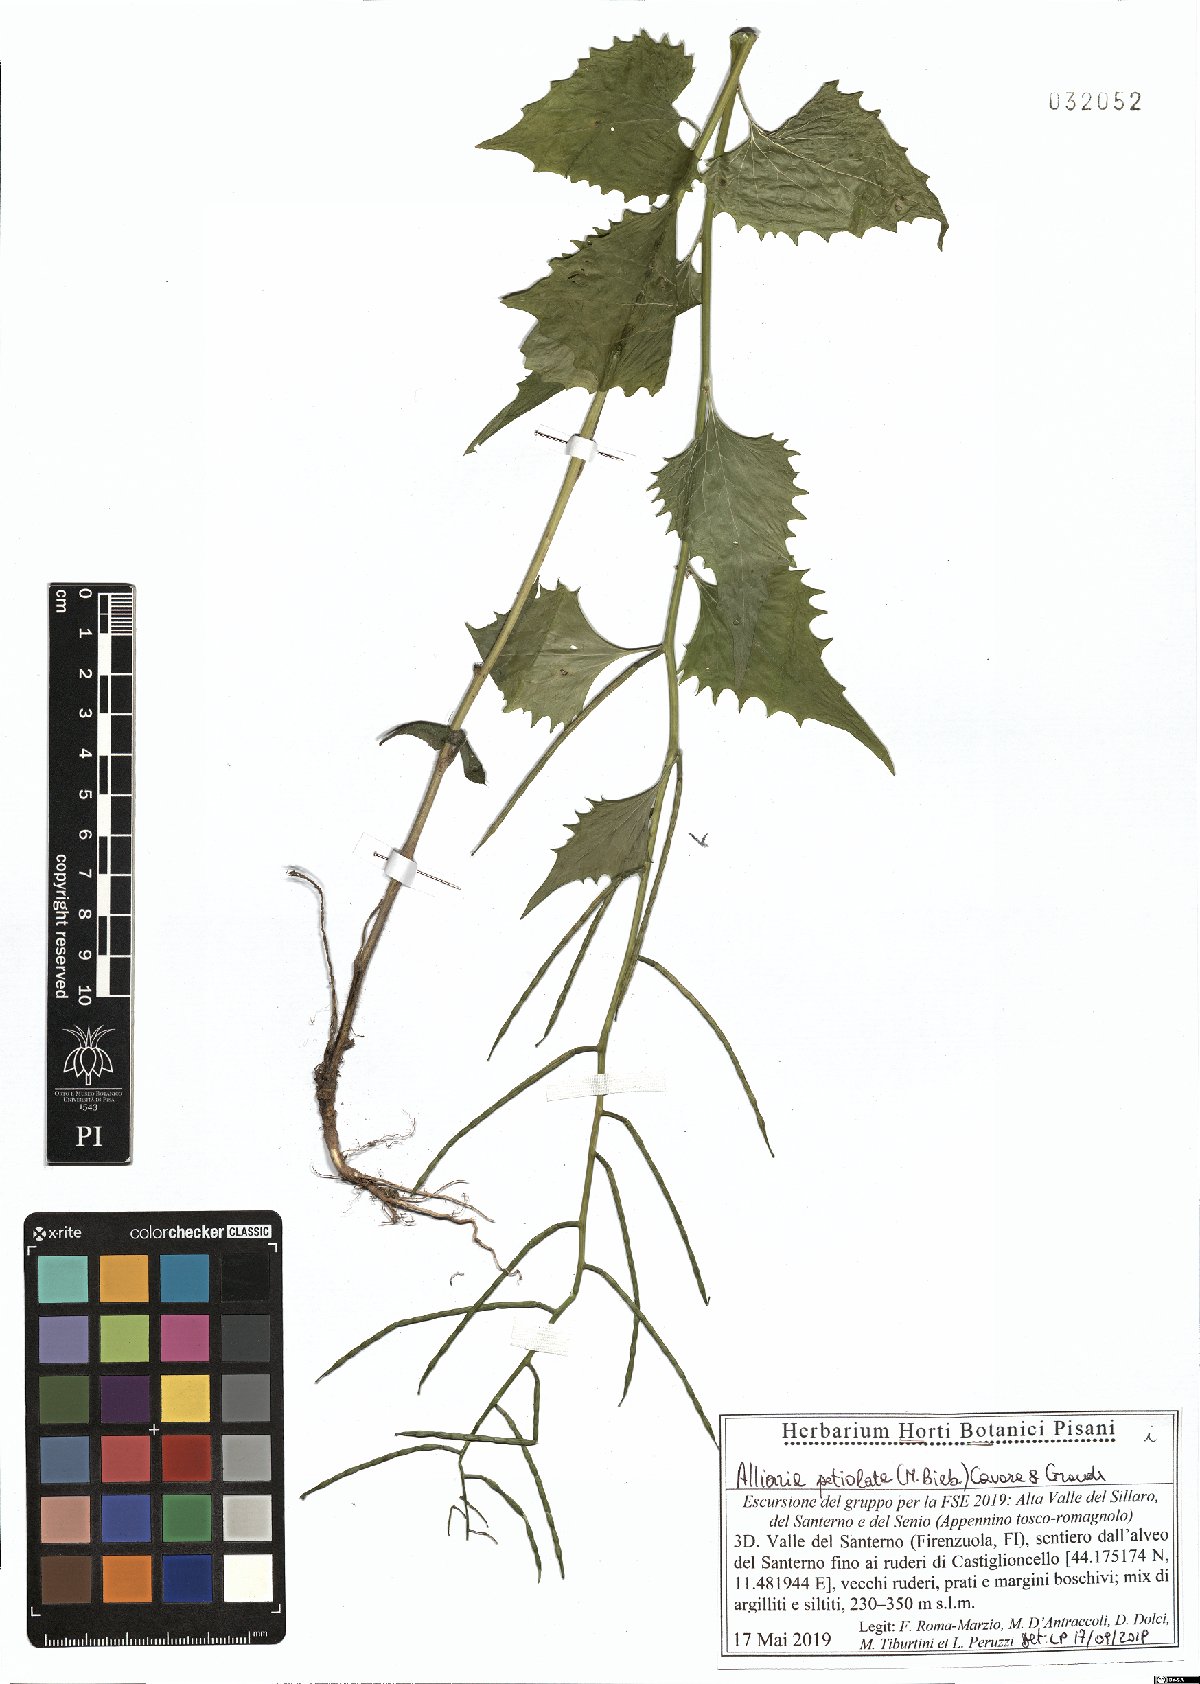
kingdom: Plantae
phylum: Tracheophyta
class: Magnoliopsida
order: Brassicales
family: Brassicaceae
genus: Alliaria
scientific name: Alliaria petiolata
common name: Garlic mustard
